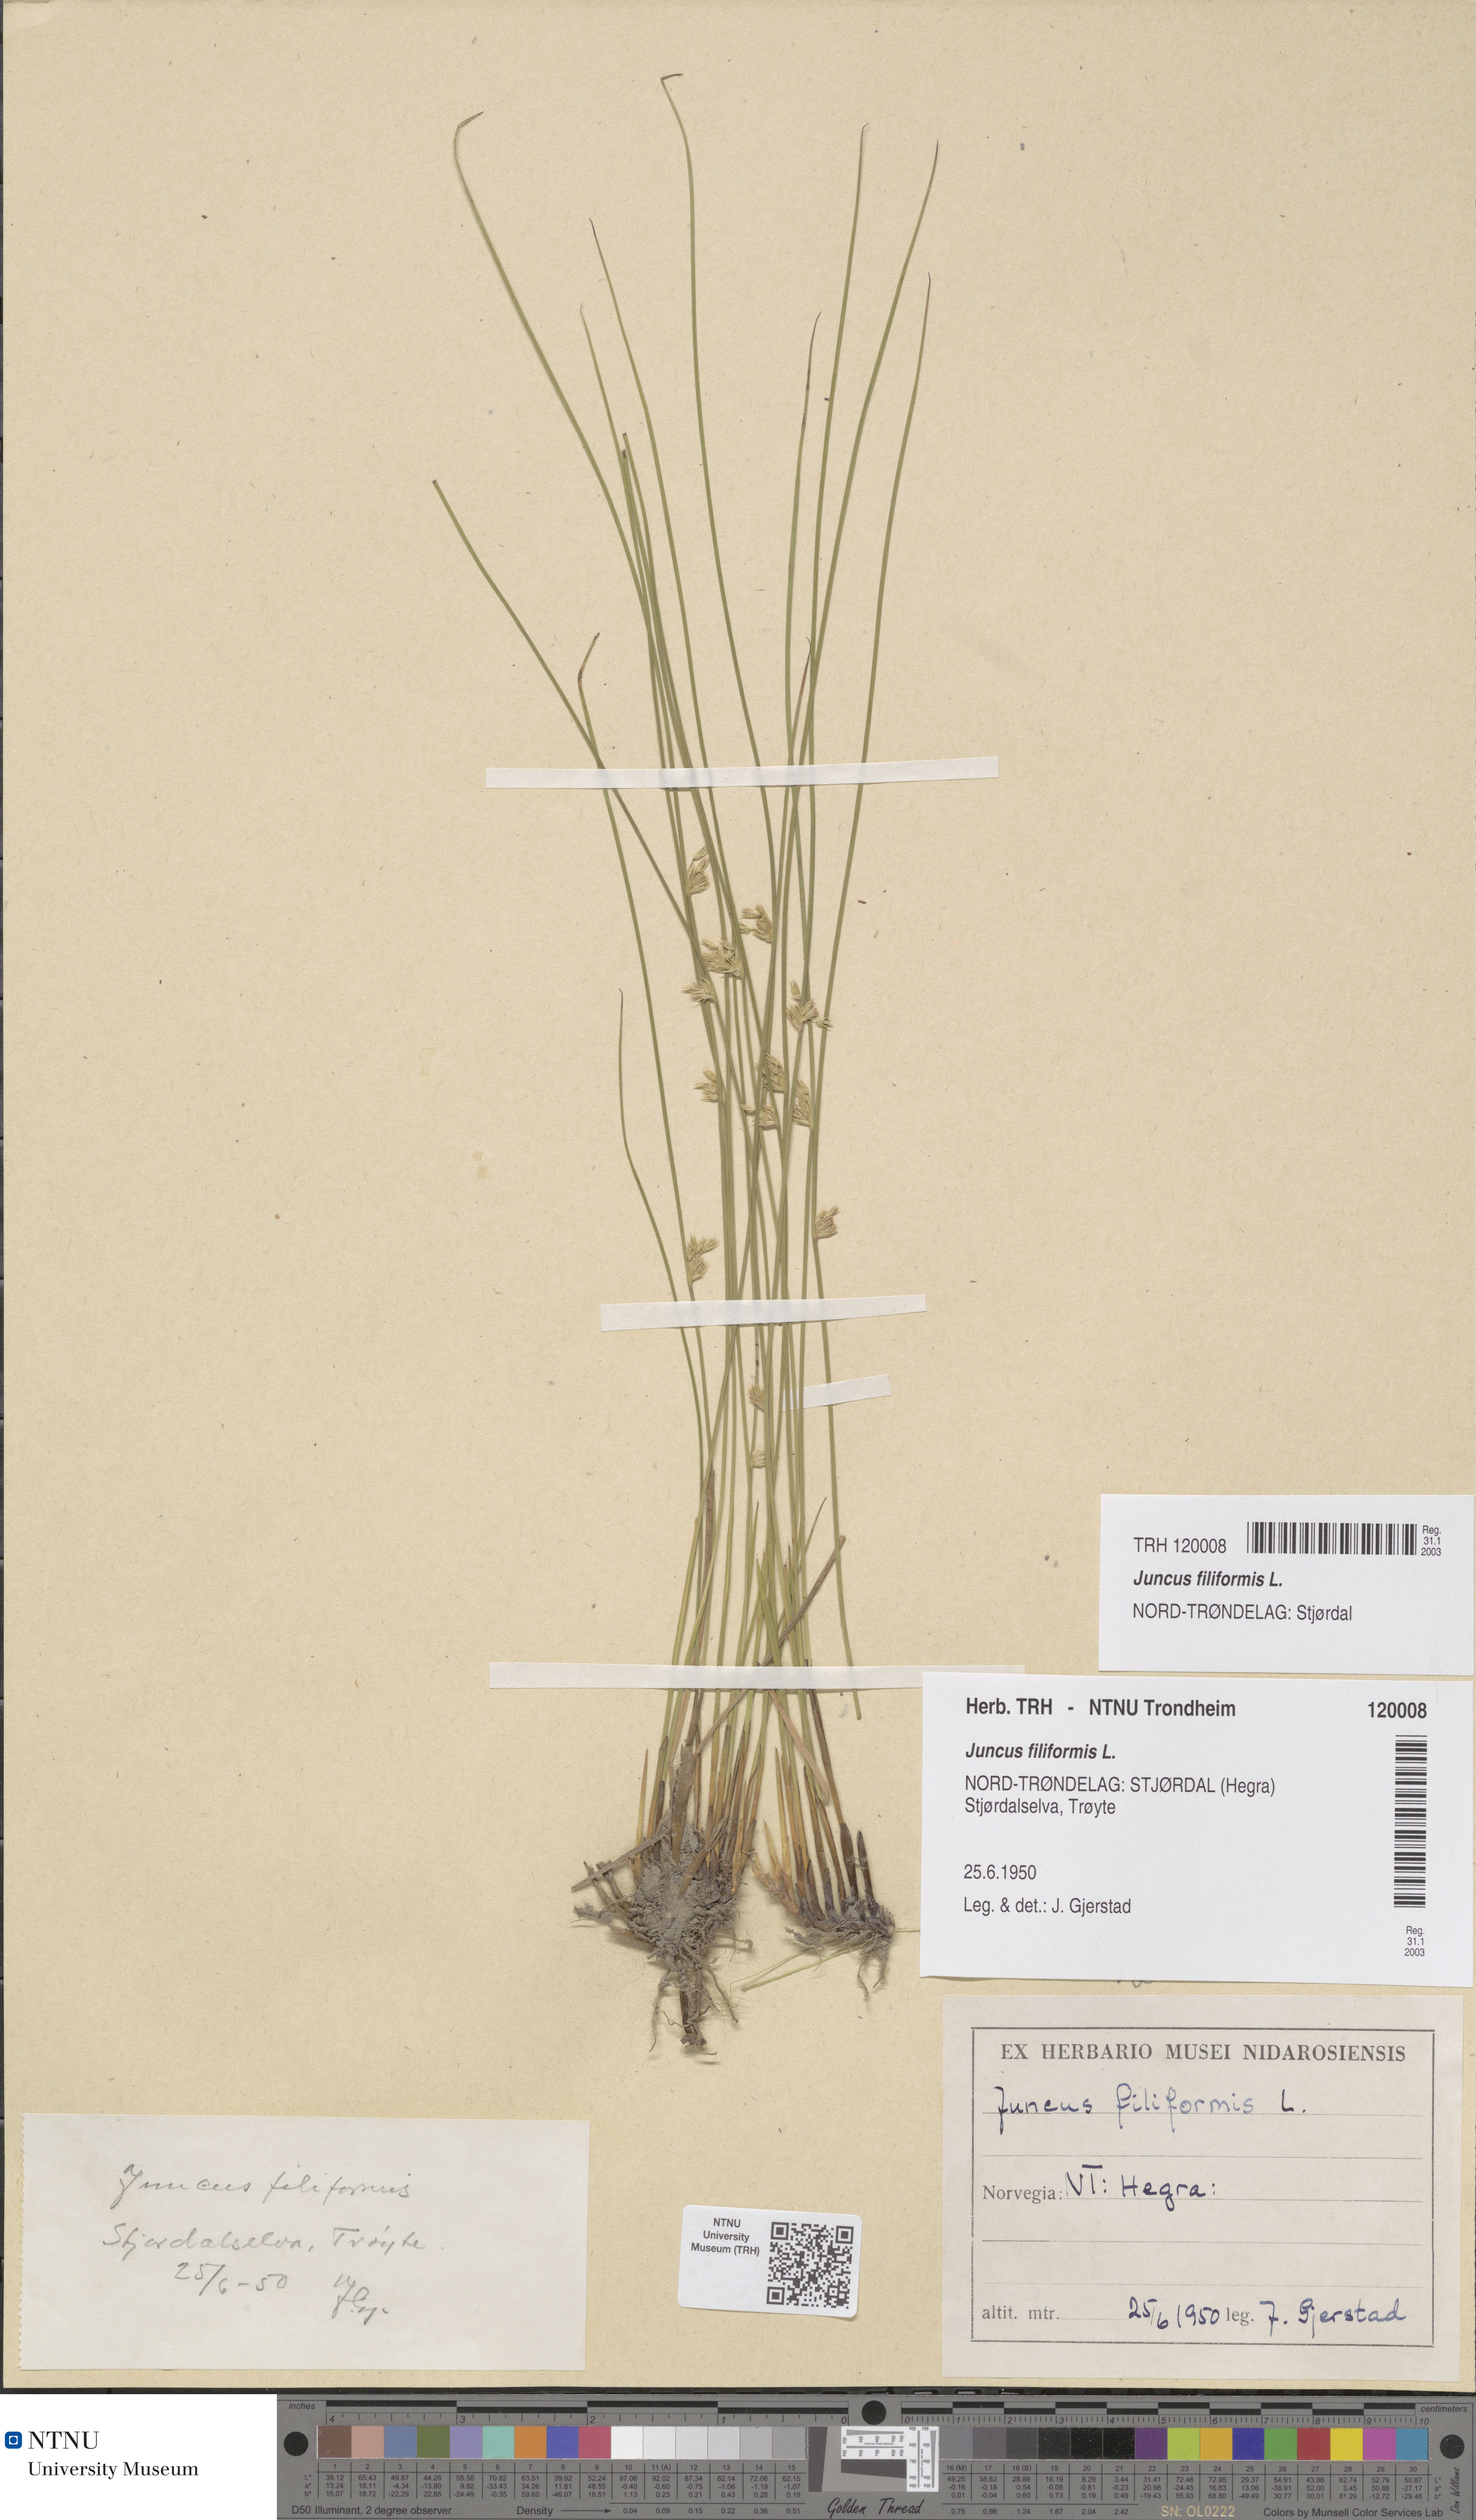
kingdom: Plantae
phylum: Tracheophyta
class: Liliopsida
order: Poales
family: Juncaceae
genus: Juncus
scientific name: Juncus filiformis
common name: Thread rush
